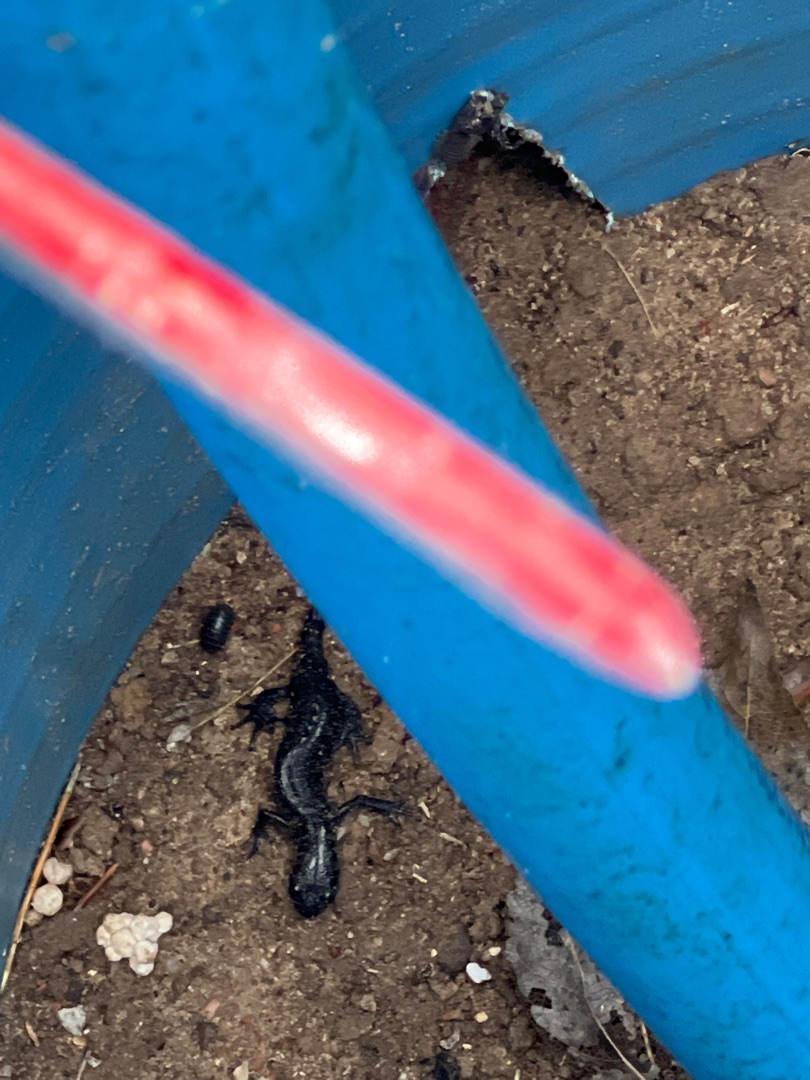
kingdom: Animalia
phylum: Chordata
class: Amphibia
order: Caudata
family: Salamandridae
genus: Triturus
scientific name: Triturus cristatus
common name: Stor vandsalamander
